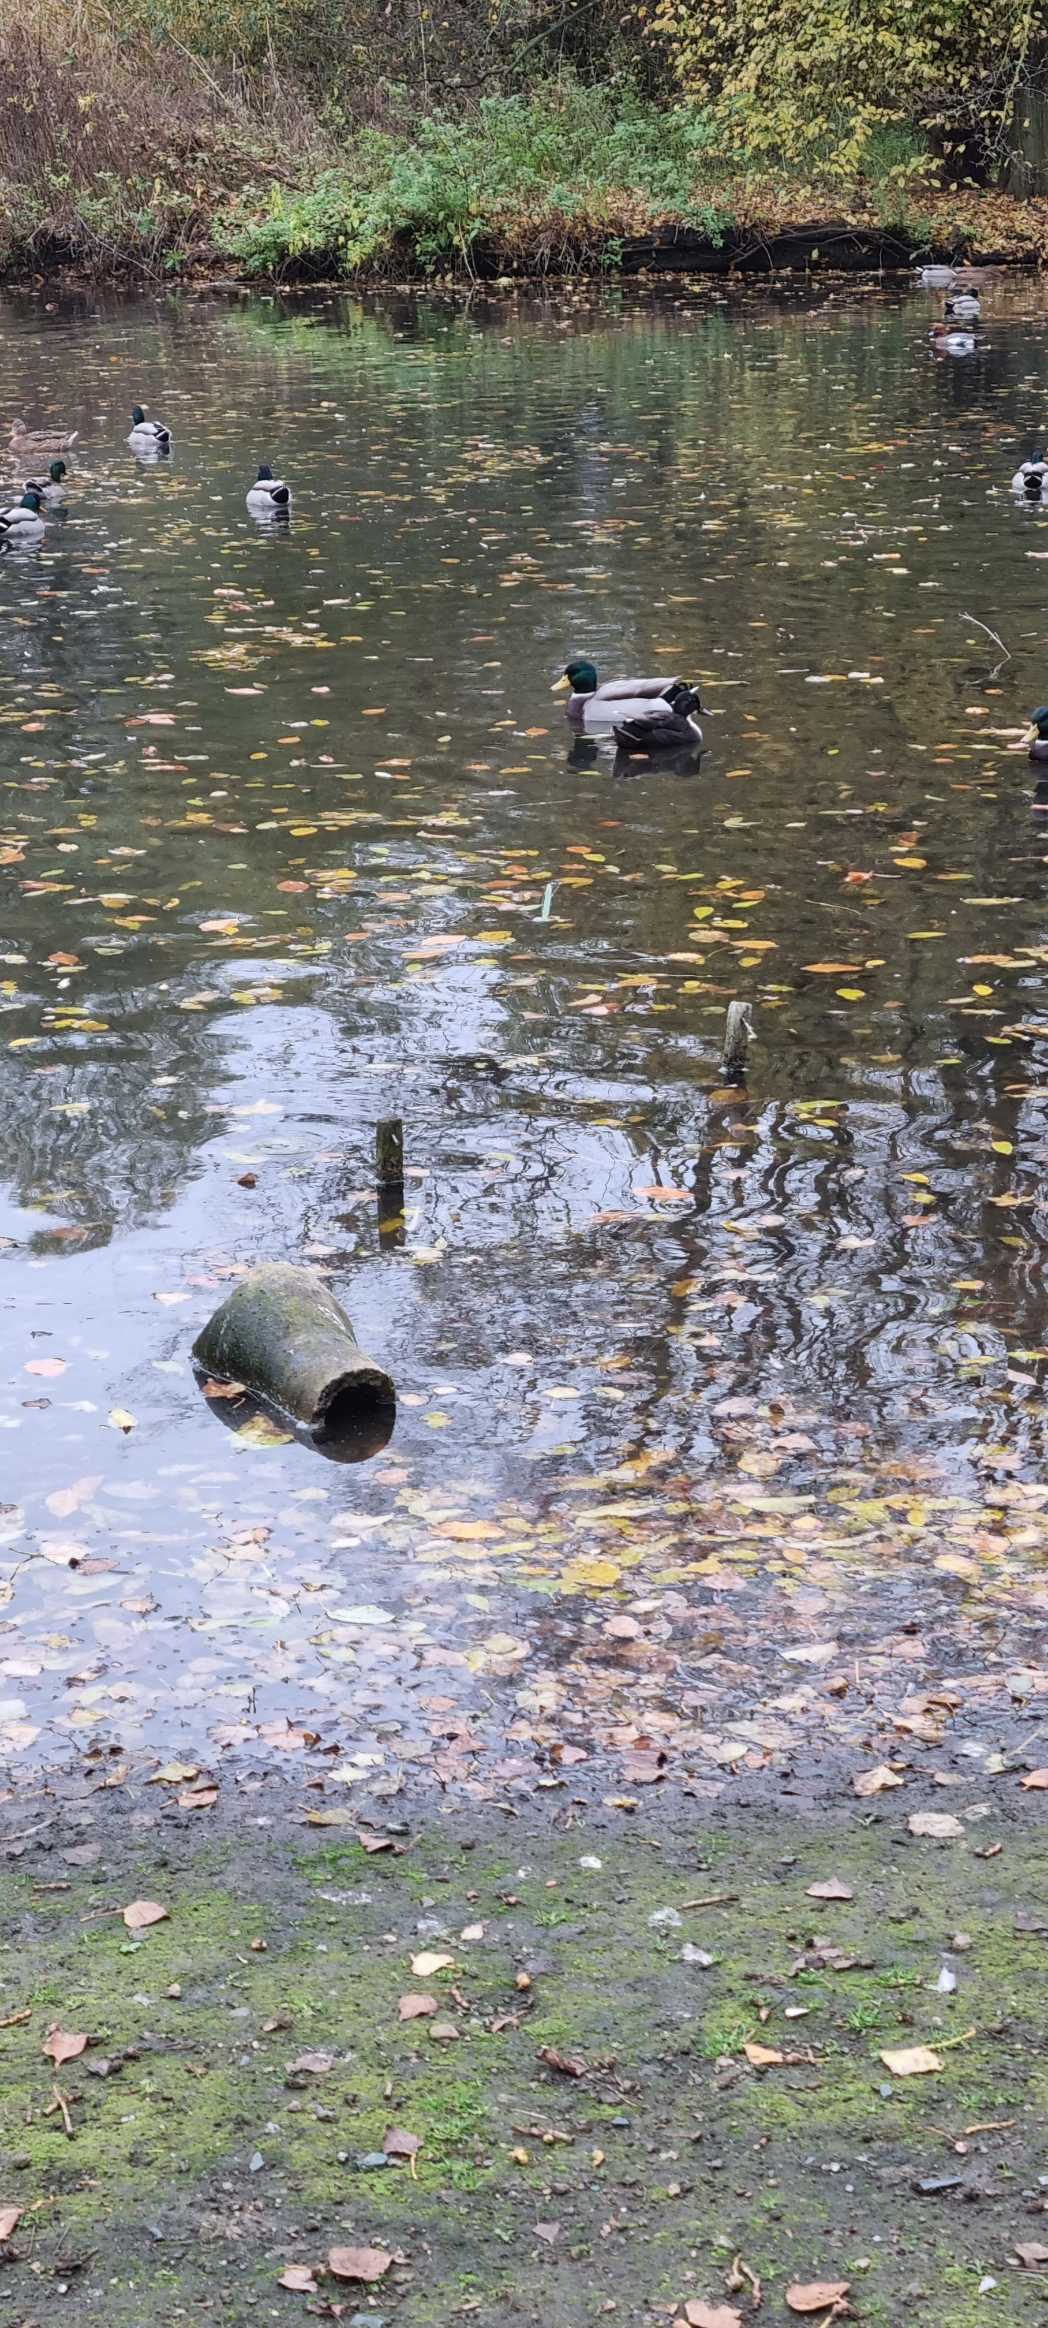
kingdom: Animalia
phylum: Chordata
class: Aves
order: Anseriformes
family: Anatidae
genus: Anas
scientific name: Anas platyrhynchos
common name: Gråand
